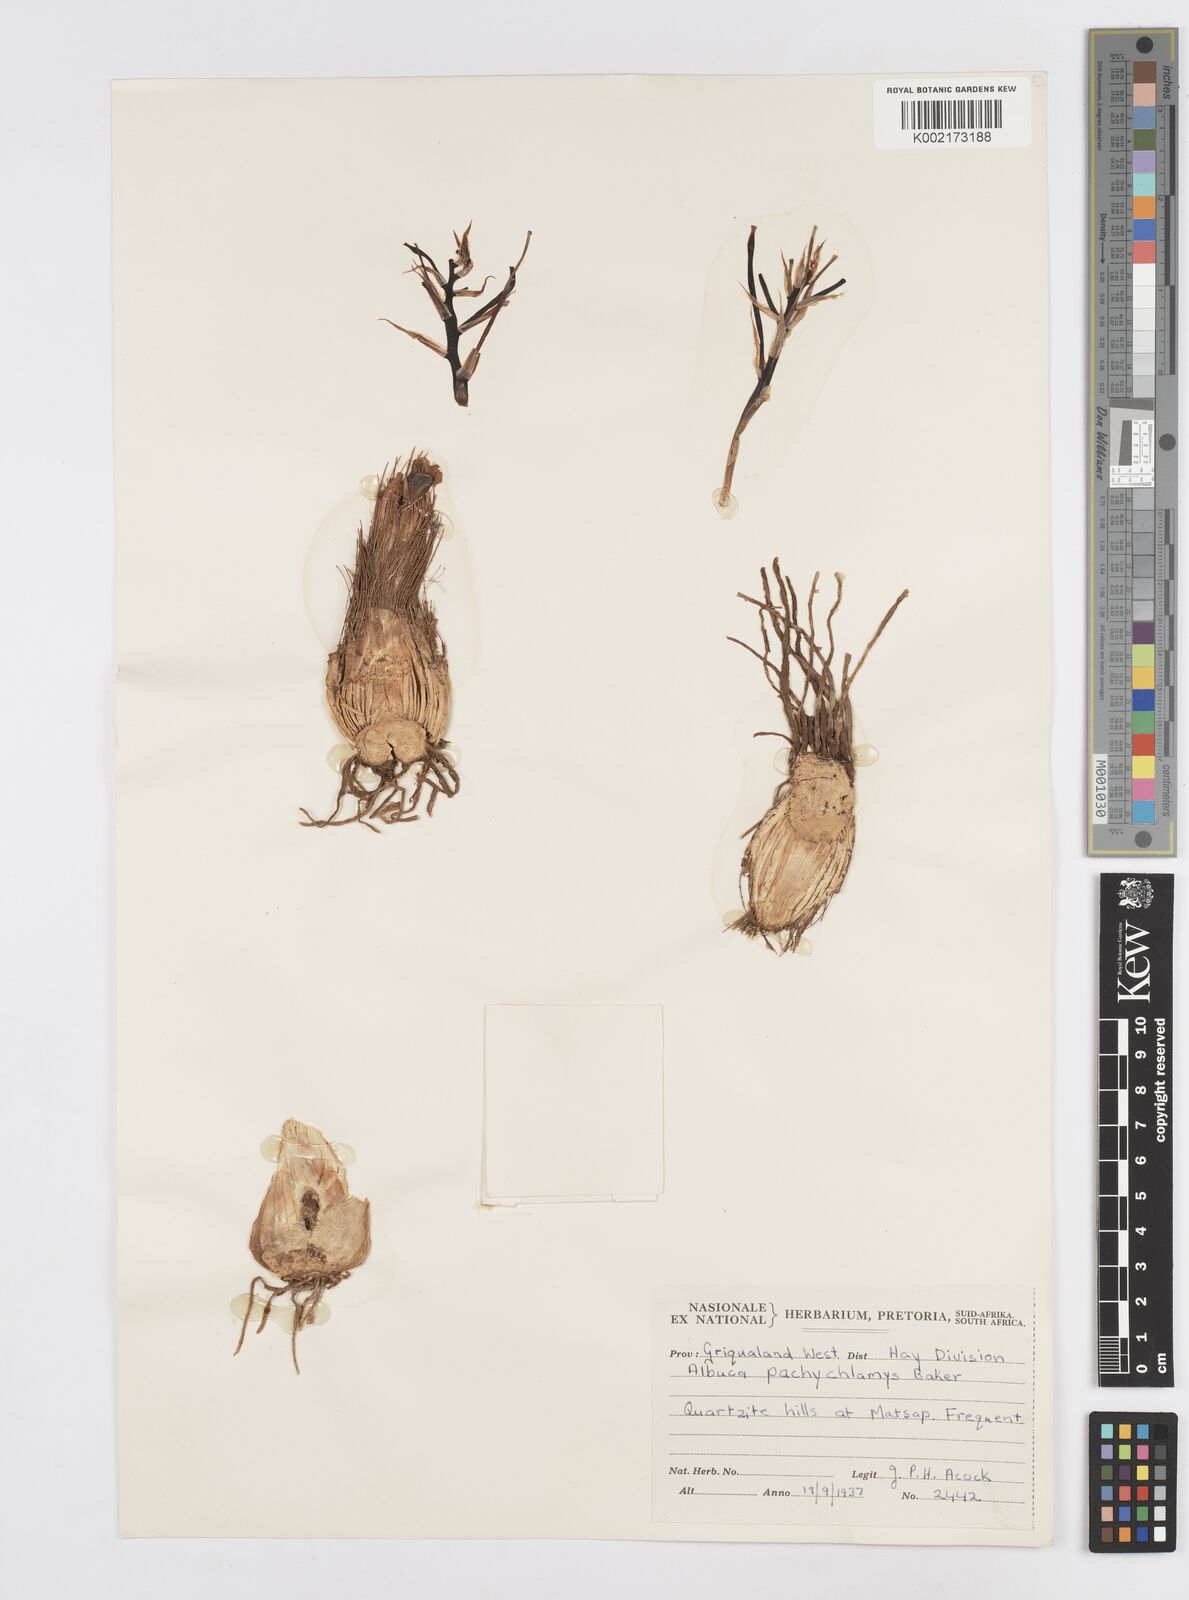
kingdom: Plantae
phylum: Tracheophyta
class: Liliopsida
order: Asparagales
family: Asparagaceae
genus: Albuca
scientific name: Albuca
